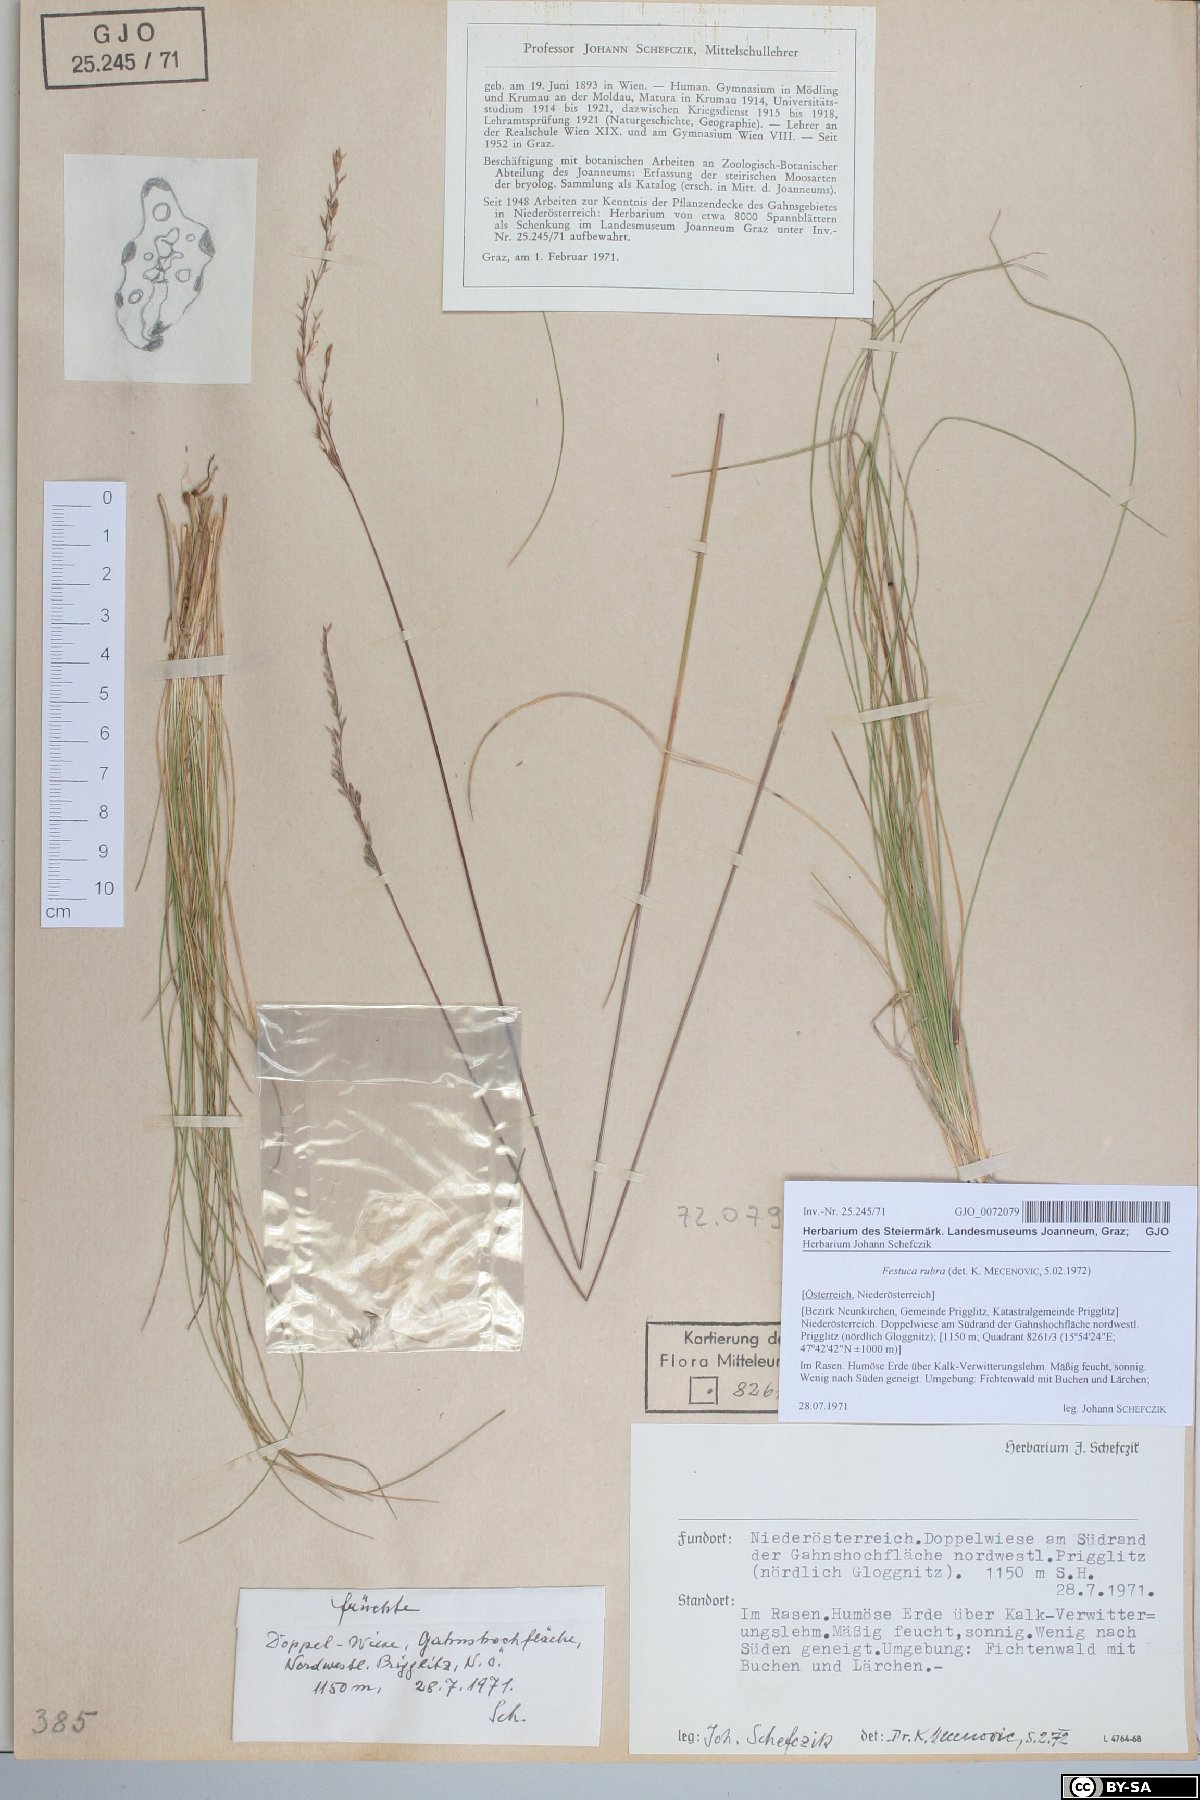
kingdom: Plantae
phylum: Tracheophyta
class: Liliopsida
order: Poales
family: Poaceae
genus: Festuca
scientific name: Festuca amethystina
